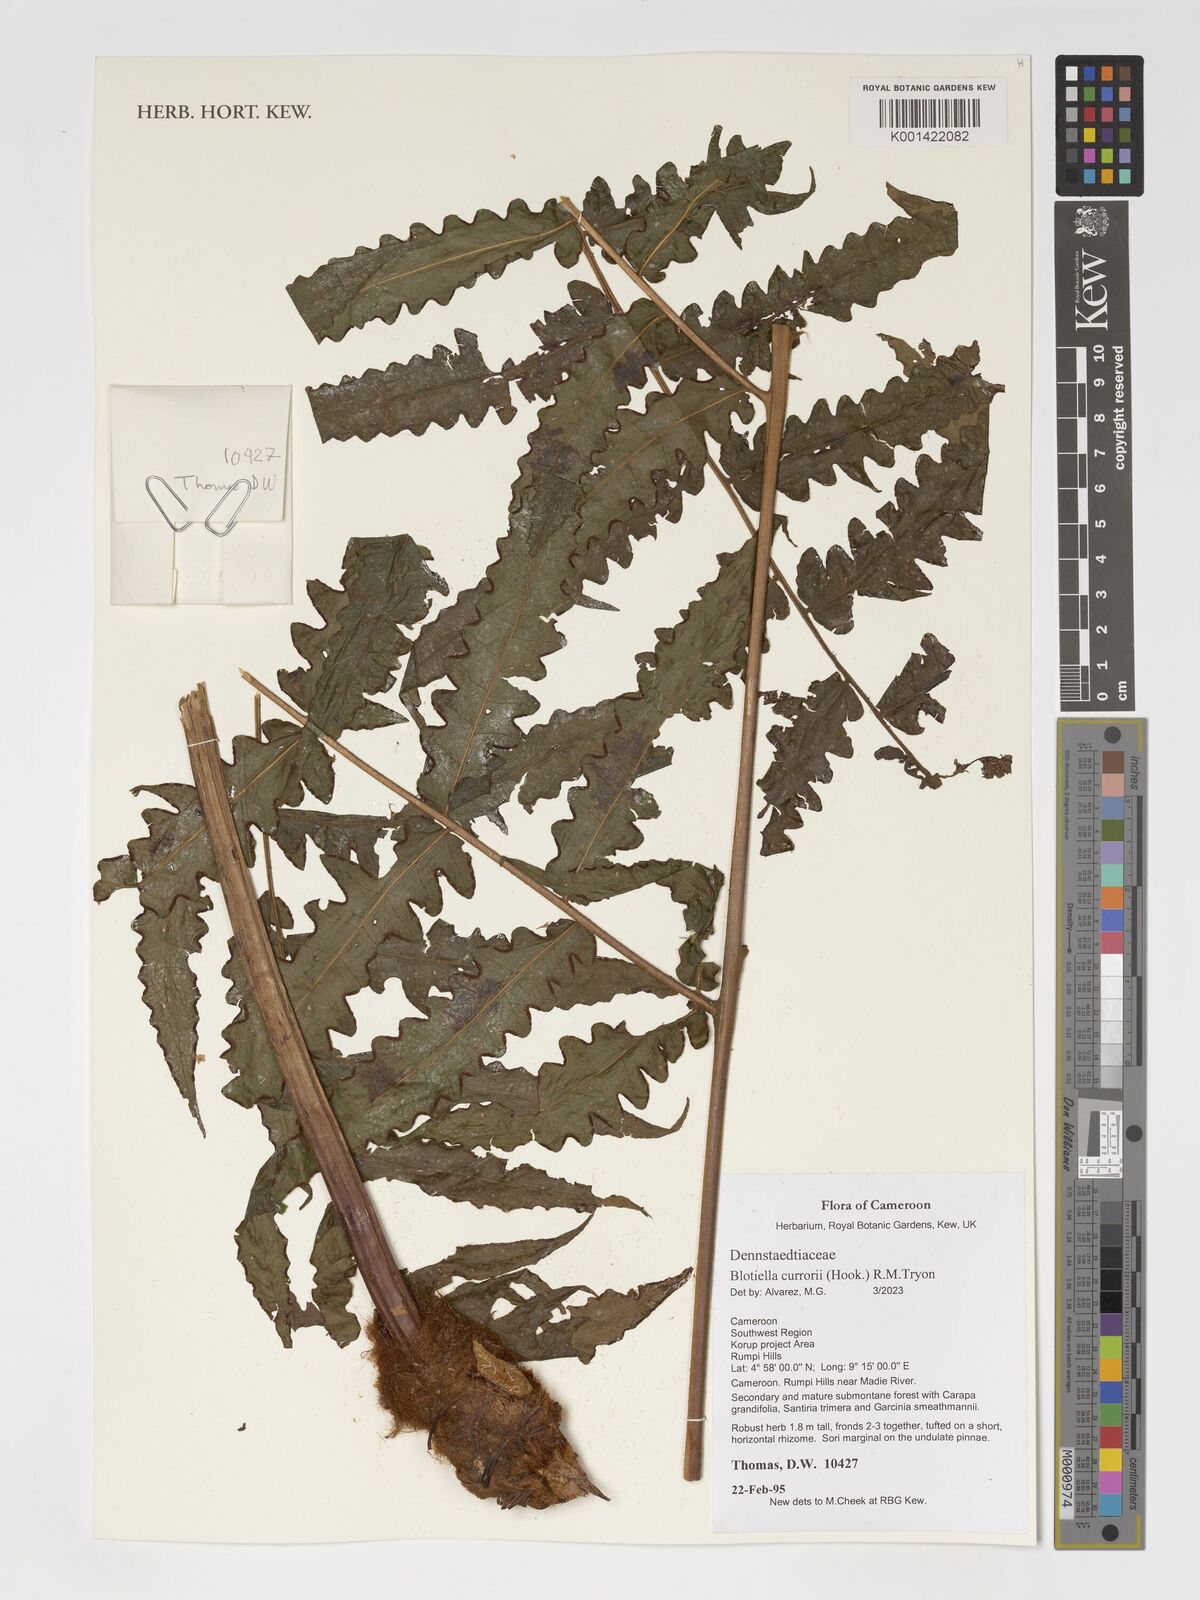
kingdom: Plantae
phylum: Tracheophyta
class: Polypodiopsida
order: Polypodiales
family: Dennstaedtiaceae
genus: Blotiella
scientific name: Blotiella currorii
